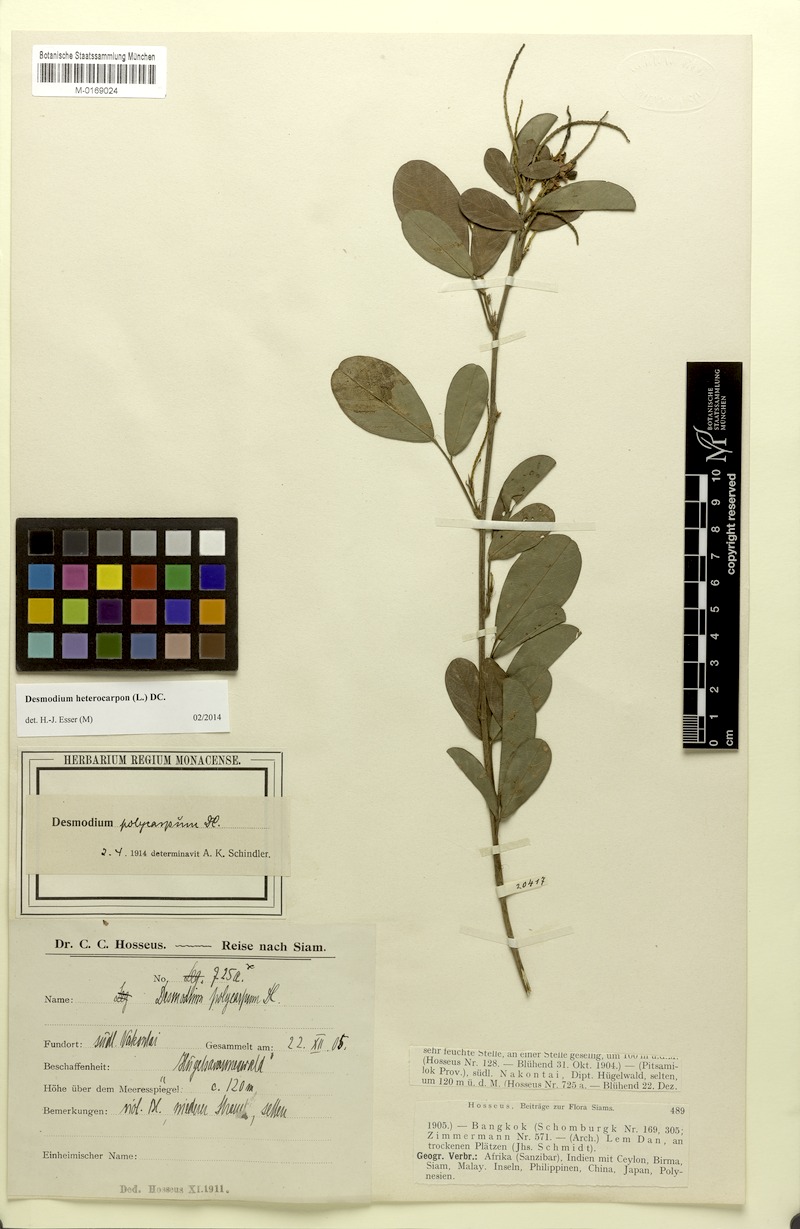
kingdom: Plantae
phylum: Tracheophyta
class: Magnoliopsida
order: Fabales
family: Fabaceae
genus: Grona
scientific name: Grona heterocarpos
